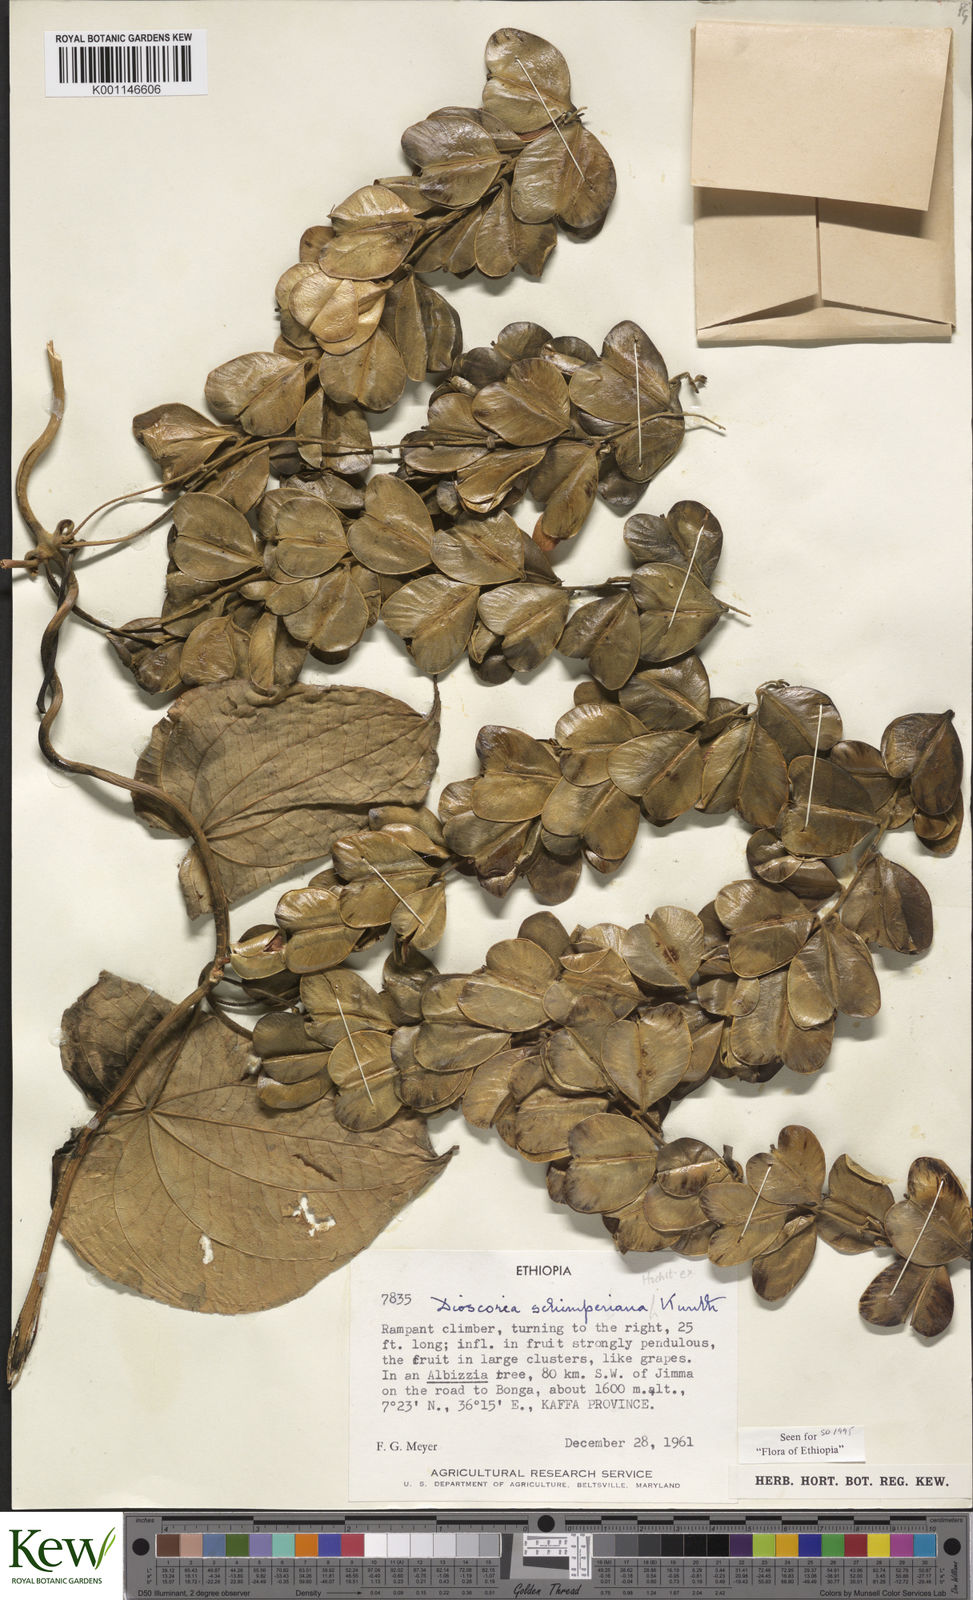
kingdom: Plantae
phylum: Tracheophyta
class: Liliopsida
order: Dioscoreales
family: Dioscoreaceae
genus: Dioscorea
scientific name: Dioscorea schimperiana
